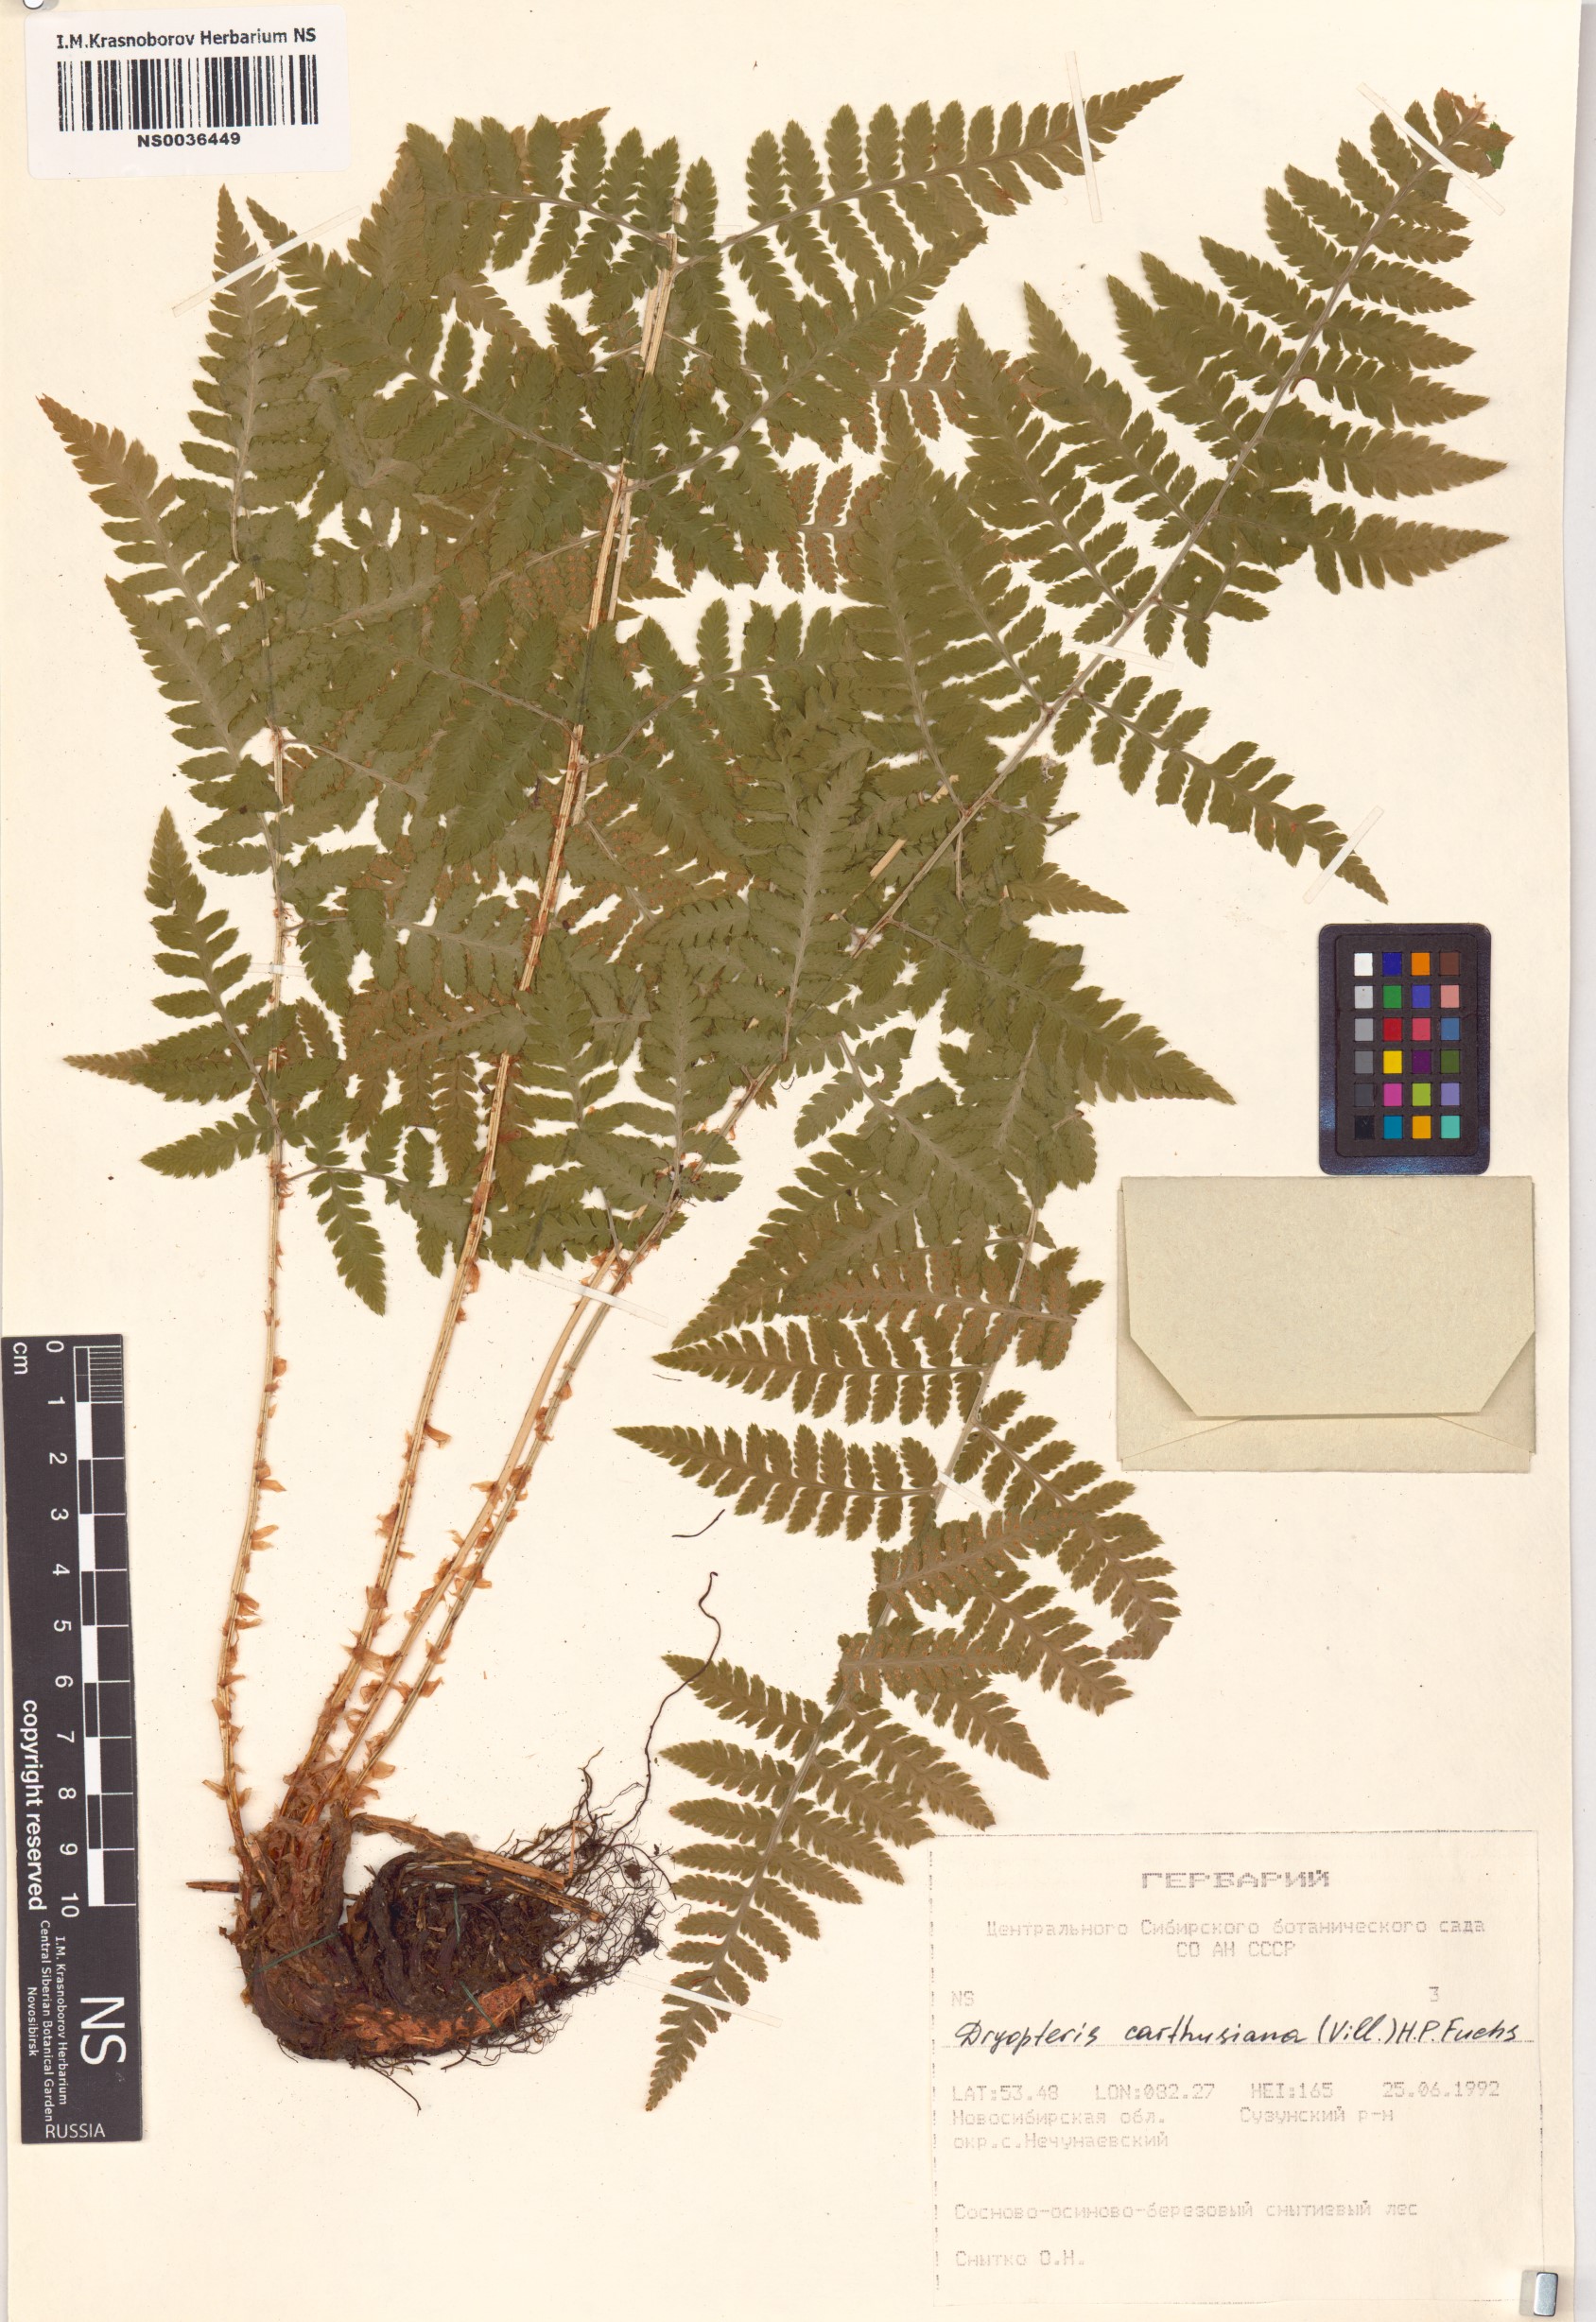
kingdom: Plantae
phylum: Tracheophyta
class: Polypodiopsida
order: Polypodiales
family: Dryopteridaceae
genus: Dryopteris
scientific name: Dryopteris carthusiana
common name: Narrow buckler-fern
